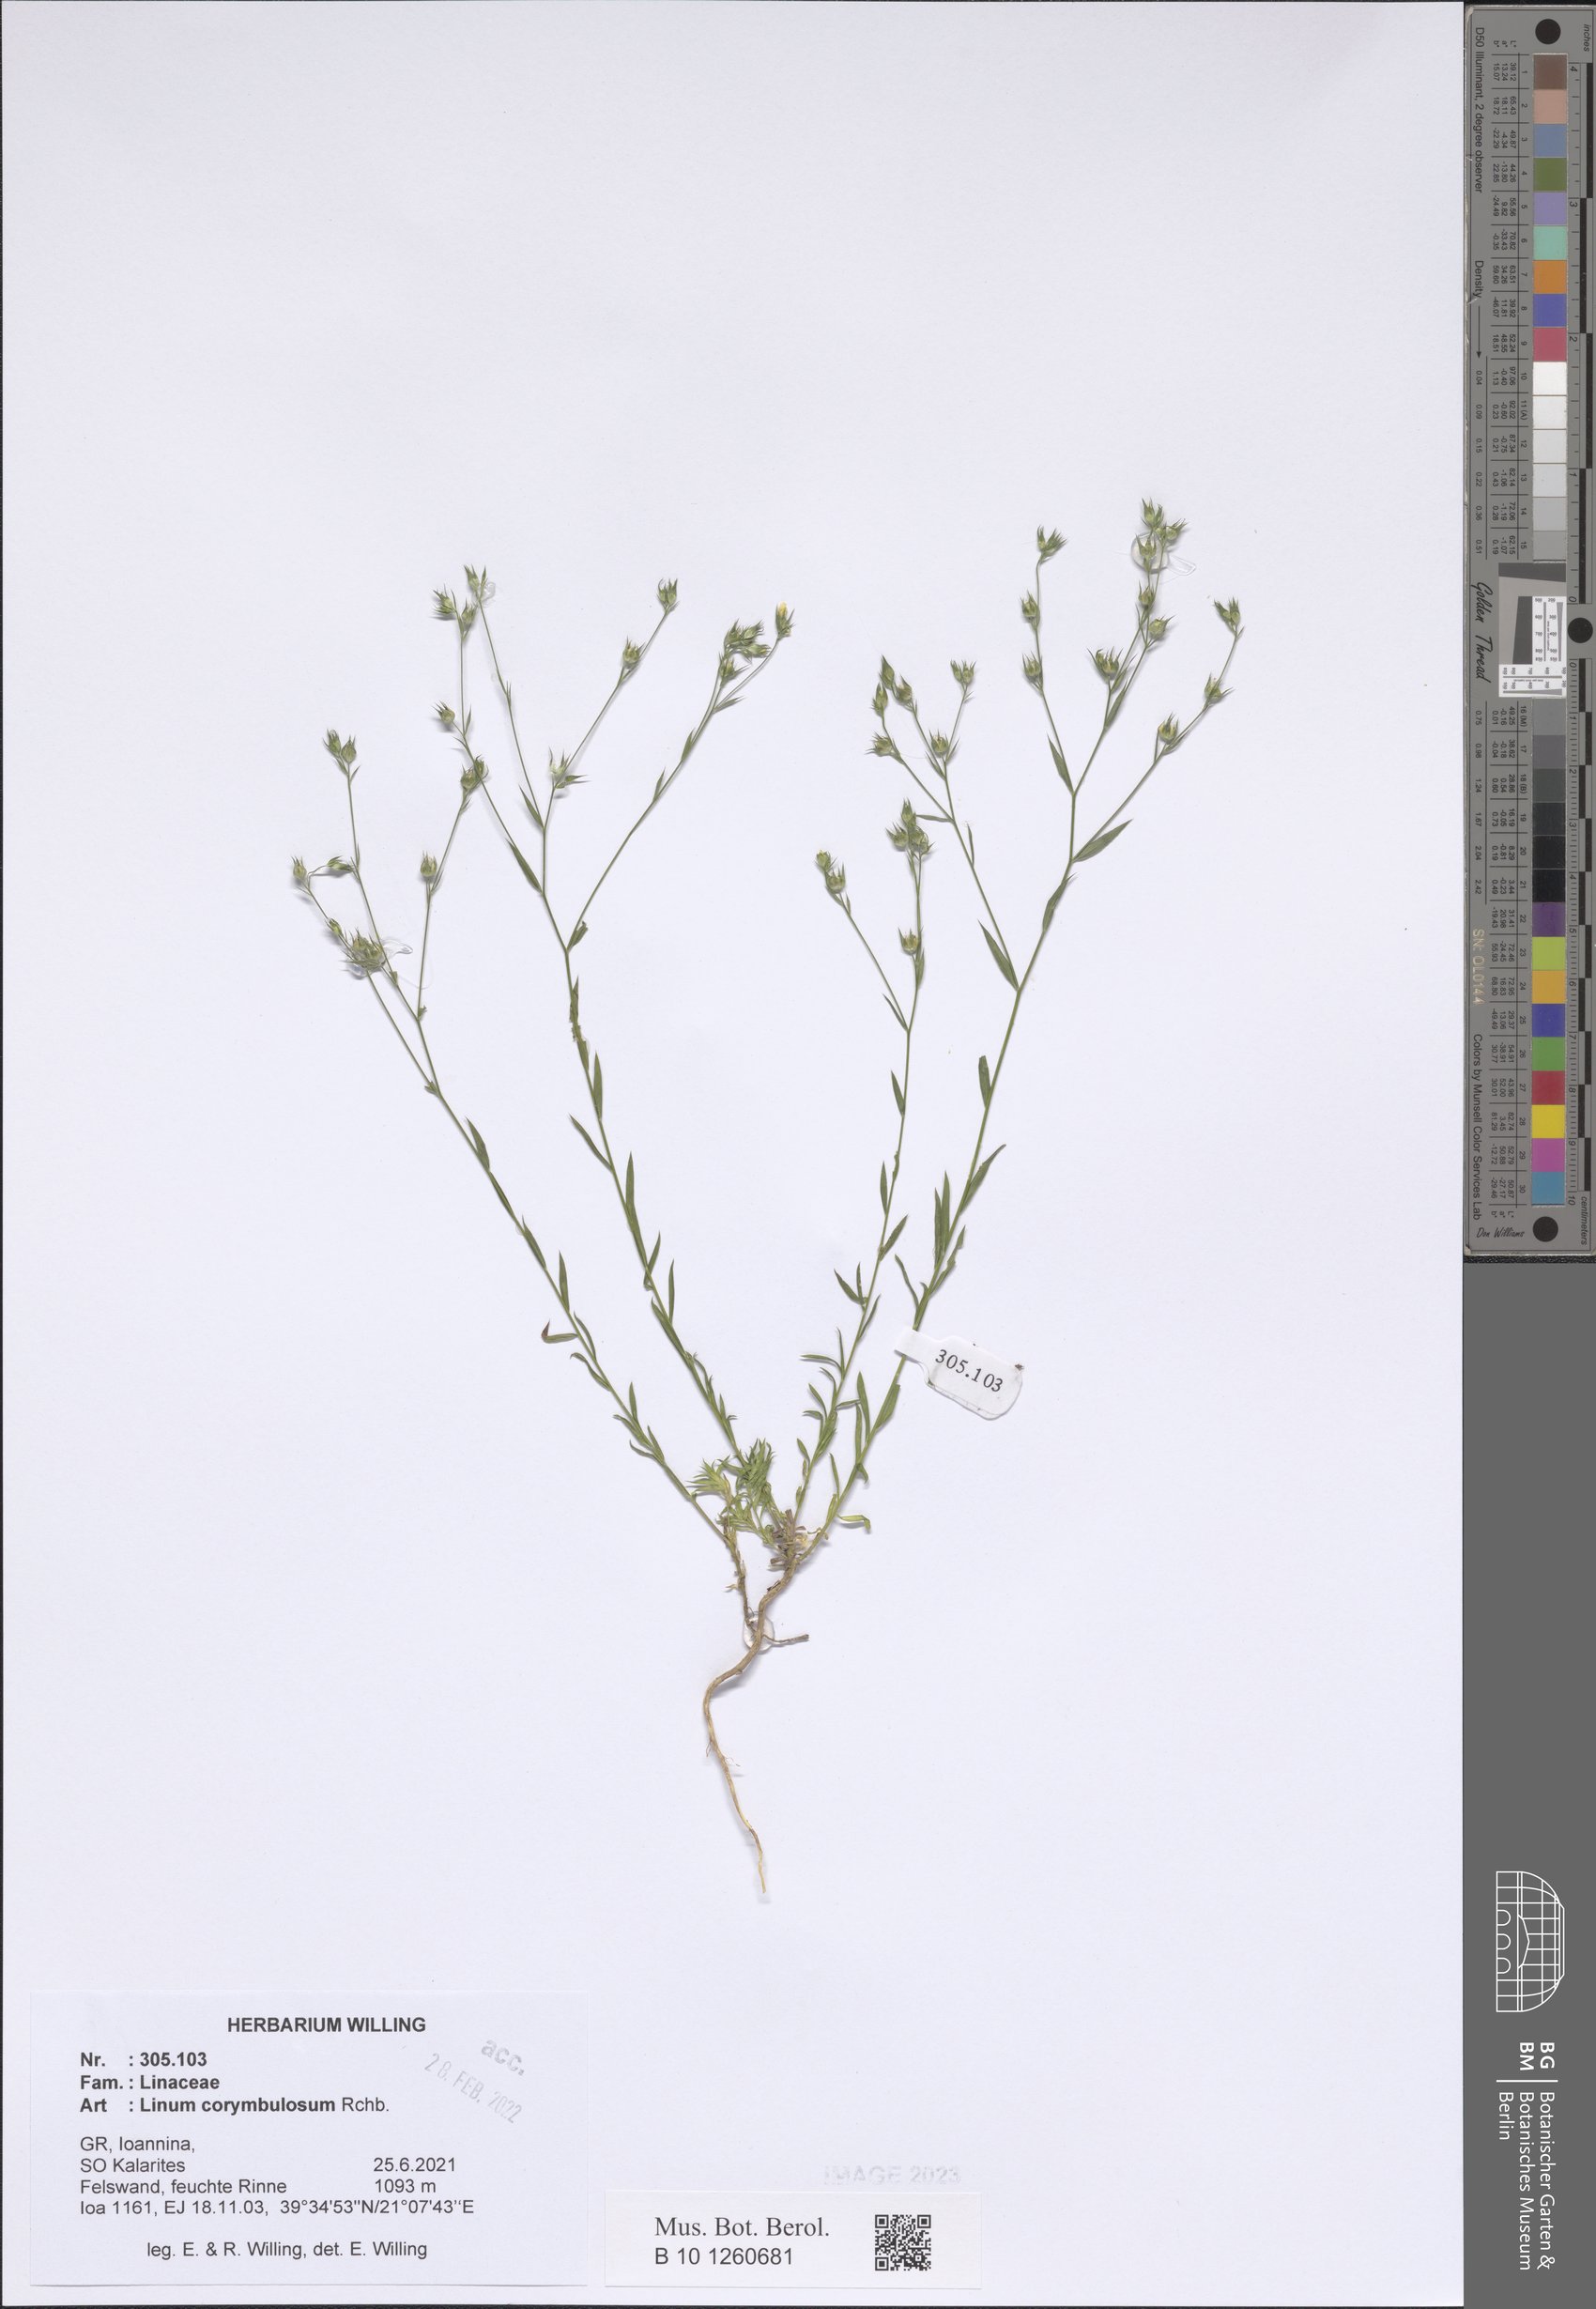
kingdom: Plantae
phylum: Tracheophyta
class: Magnoliopsida
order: Malpighiales
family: Linaceae
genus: Linum
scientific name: Linum corymbulosum
